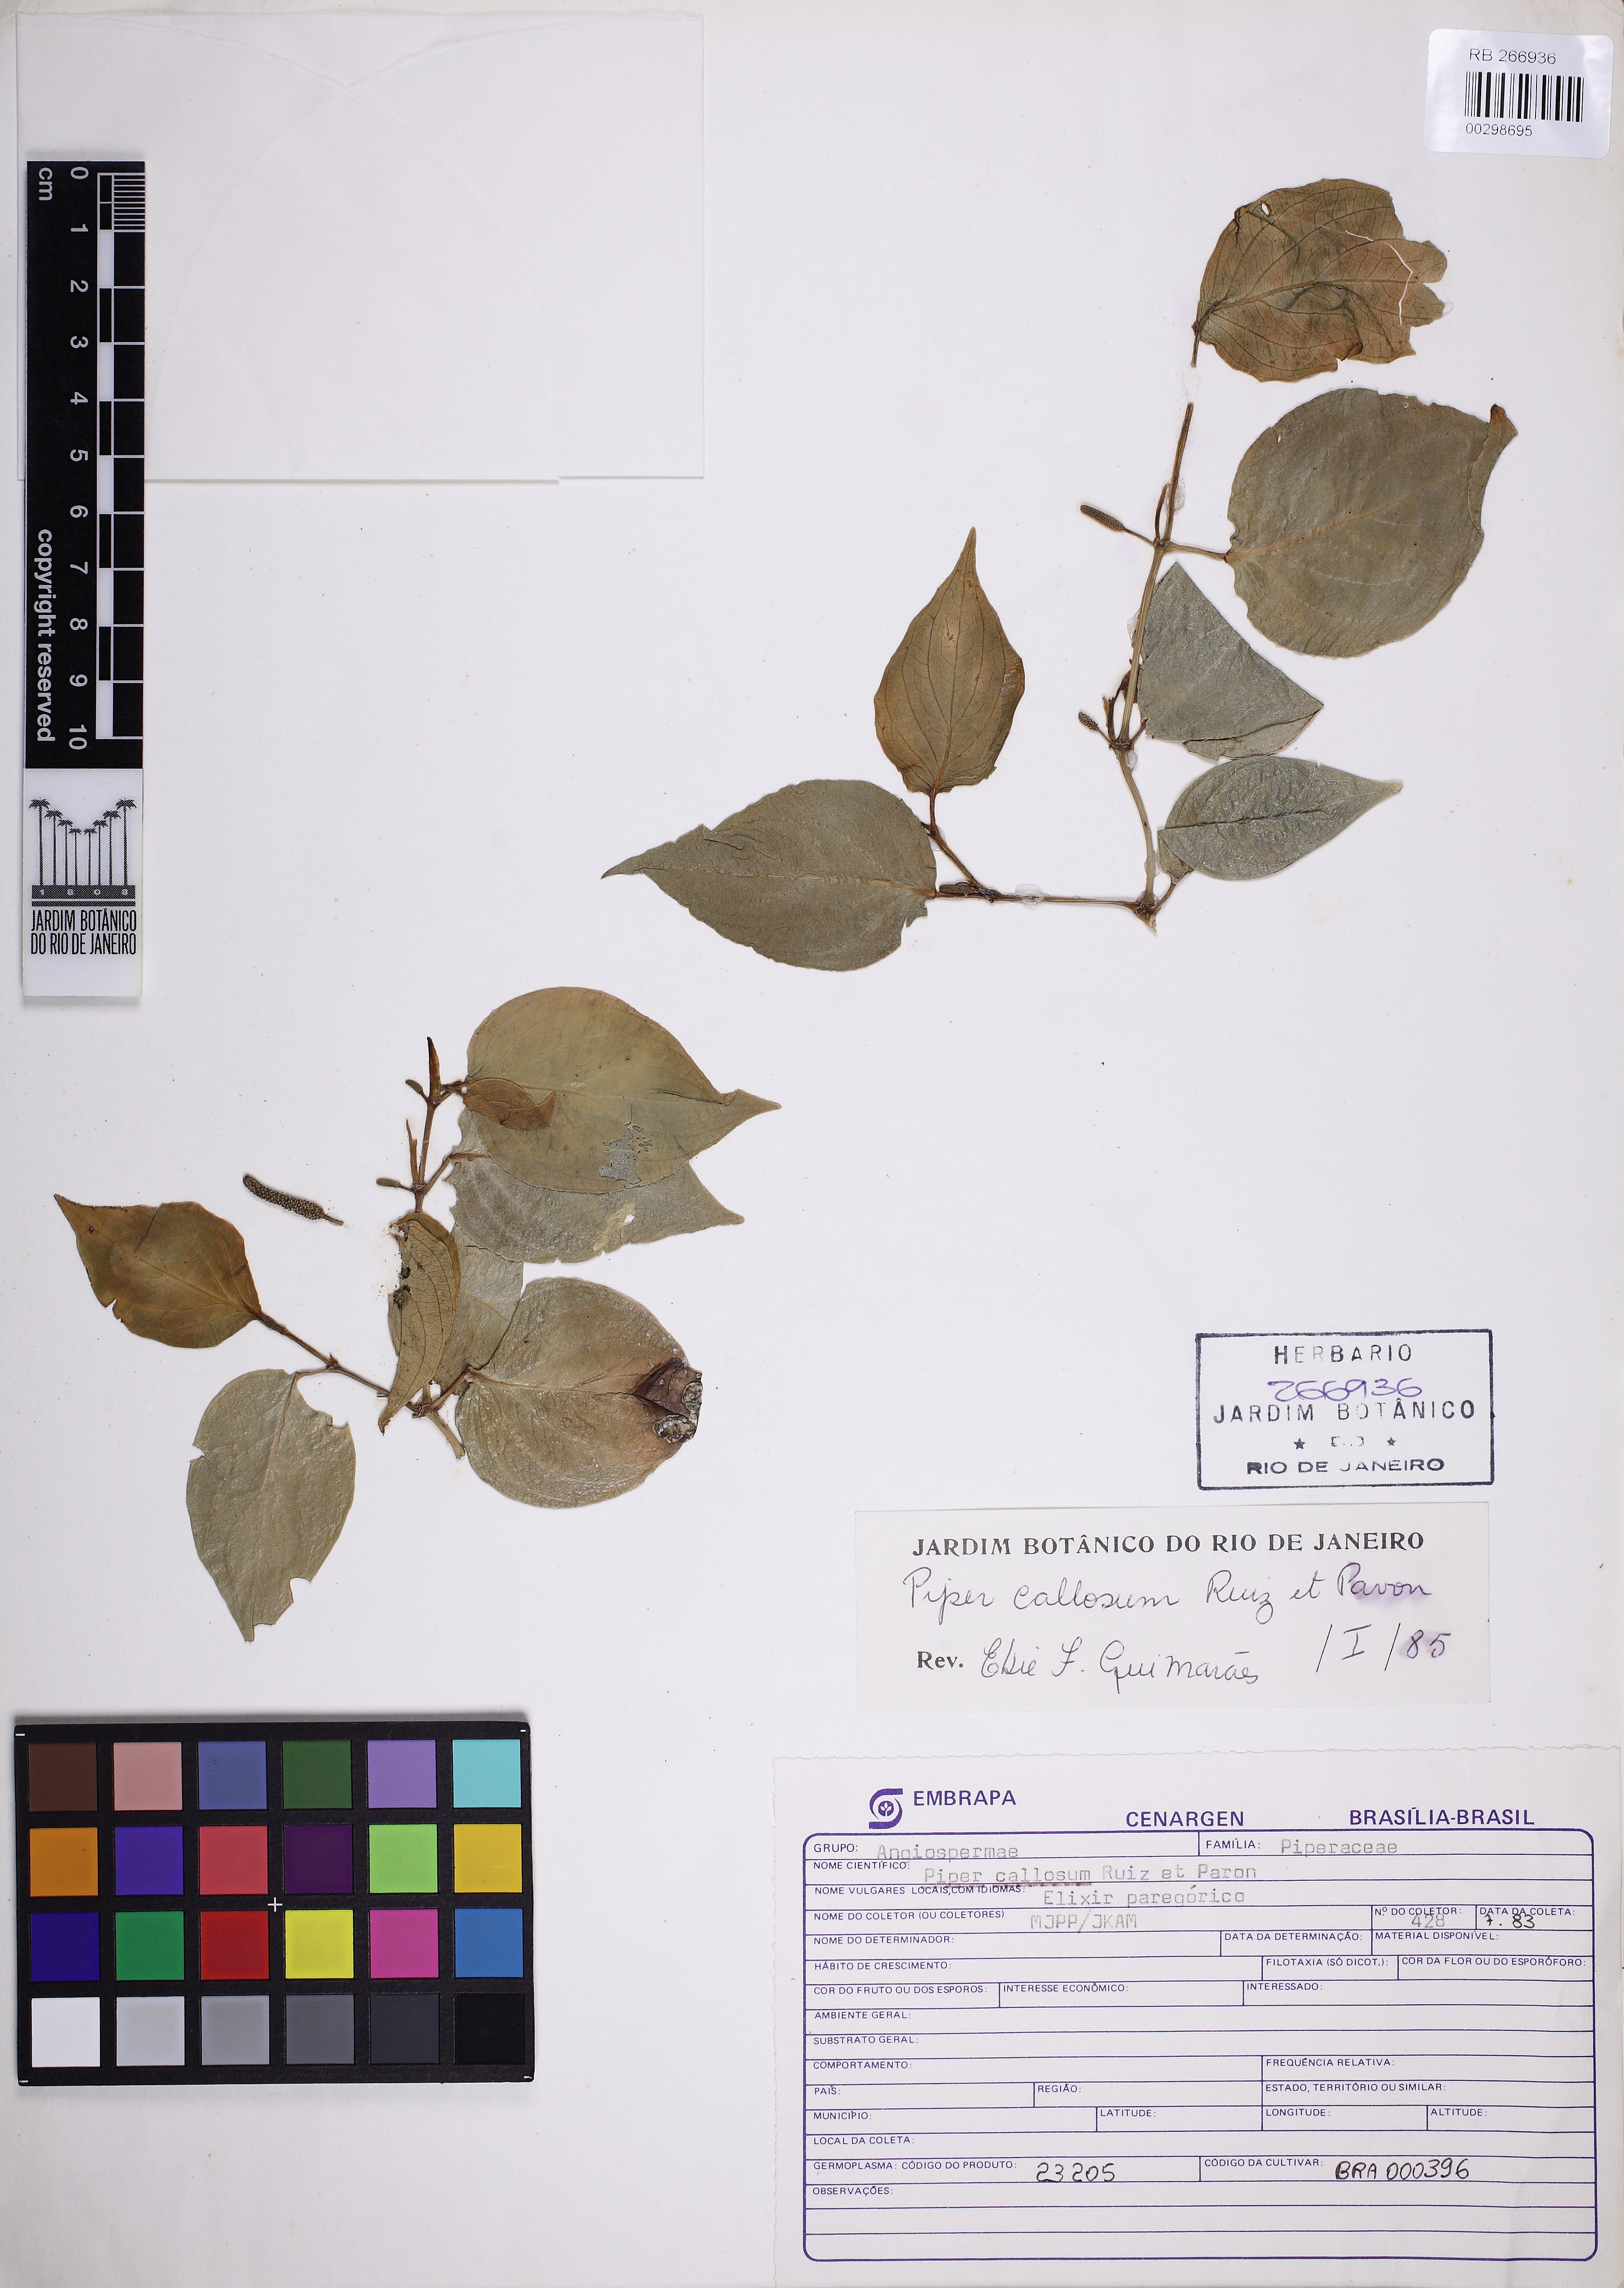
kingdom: Plantae
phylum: Tracheophyta
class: Magnoliopsida
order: Piperales
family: Piperaceae
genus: Piper
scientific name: Piper callosum
